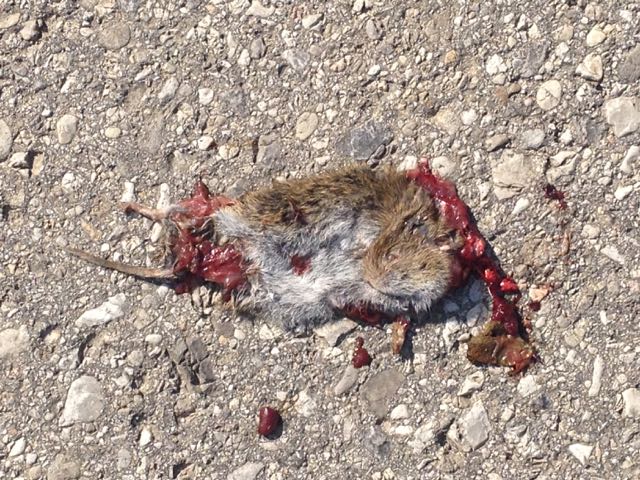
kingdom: Animalia
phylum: Chordata
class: Mammalia
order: Rodentia
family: Cricetidae
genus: Microtus
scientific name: Microtus
